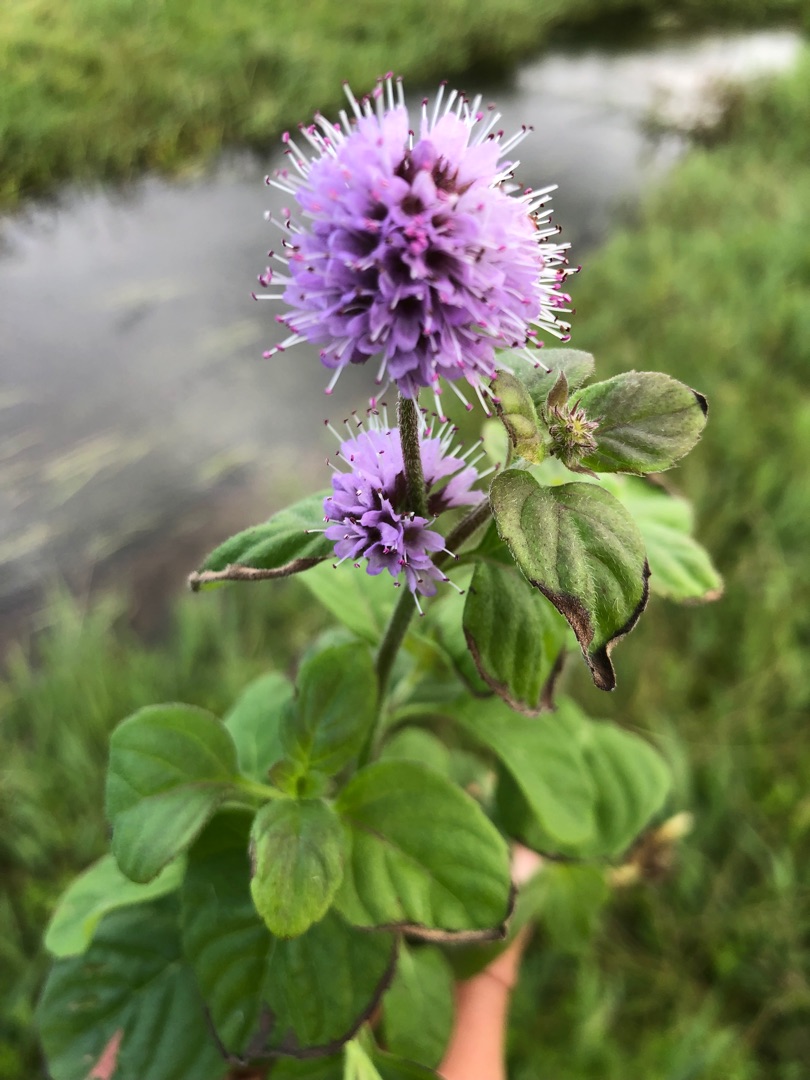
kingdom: Plantae
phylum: Tracheophyta
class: Magnoliopsida
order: Lamiales
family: Lamiaceae
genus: Mentha
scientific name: Mentha aquatica
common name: Vand-mynte
